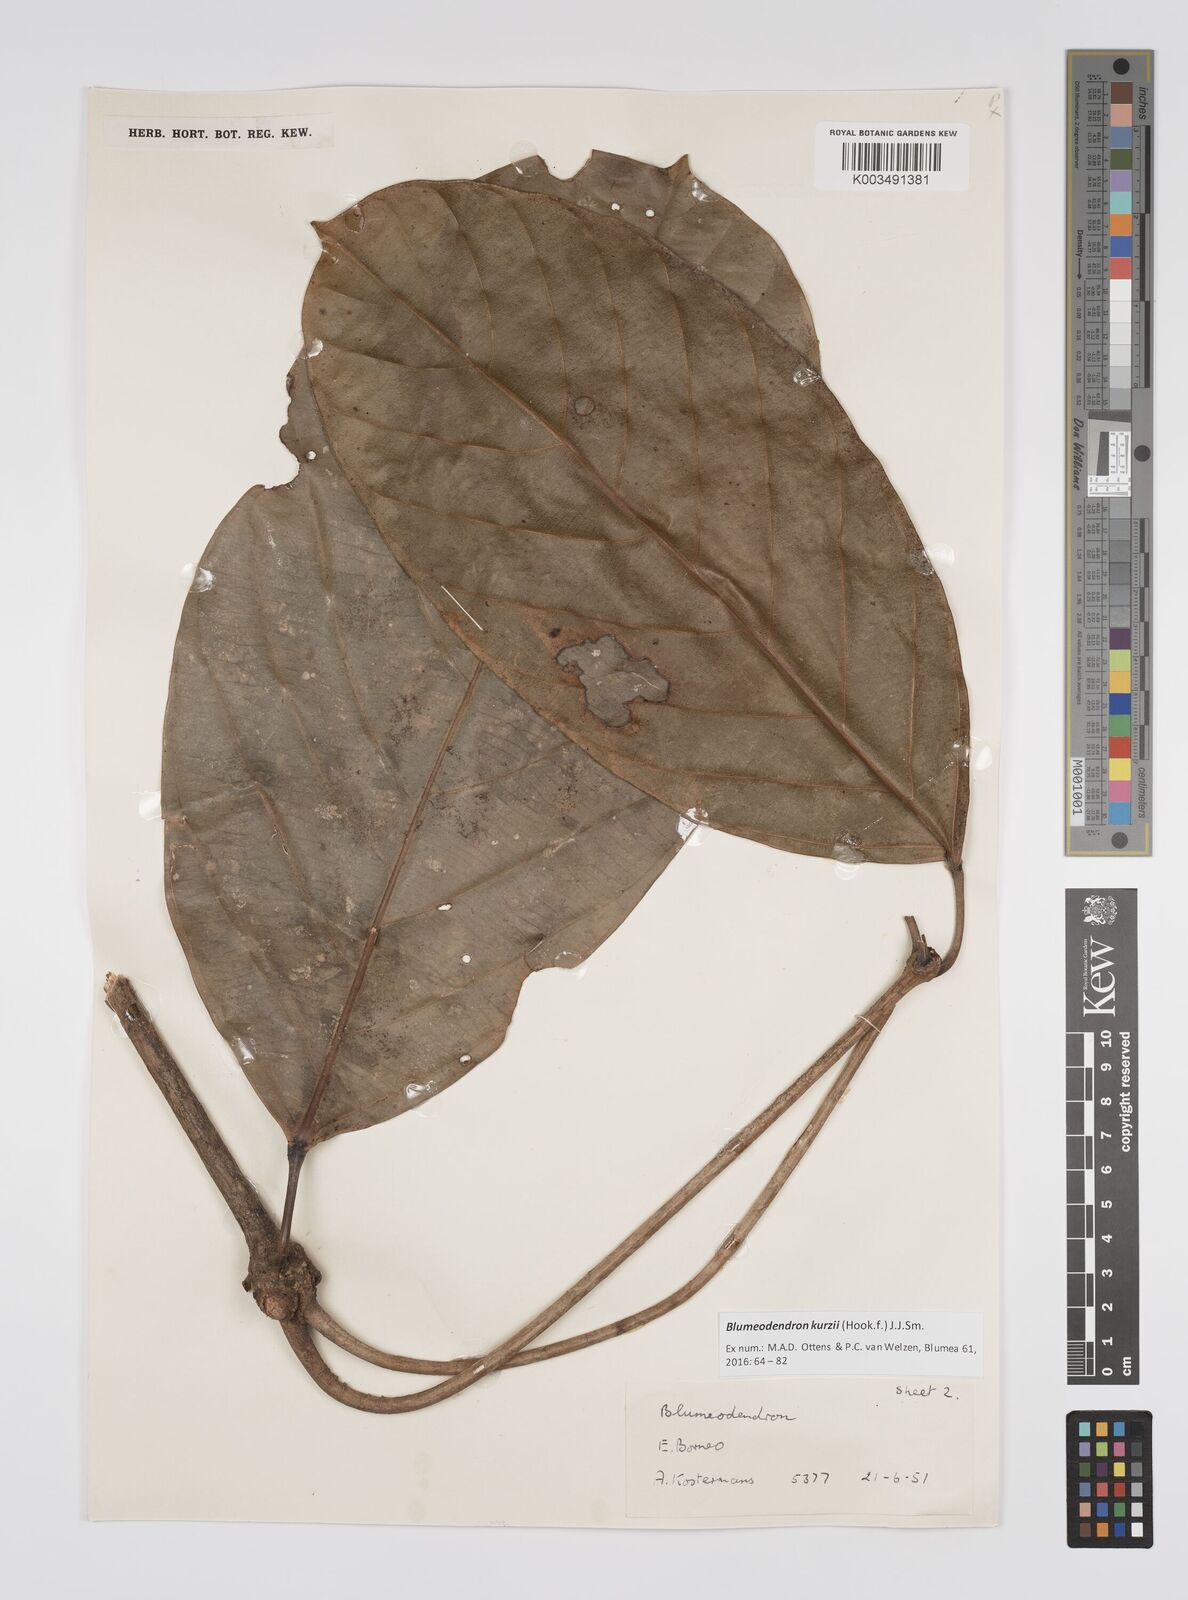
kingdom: Plantae
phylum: Tracheophyta
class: Magnoliopsida
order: Malpighiales
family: Euphorbiaceae
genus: Blumeodendron
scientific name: Blumeodendron kurzii
